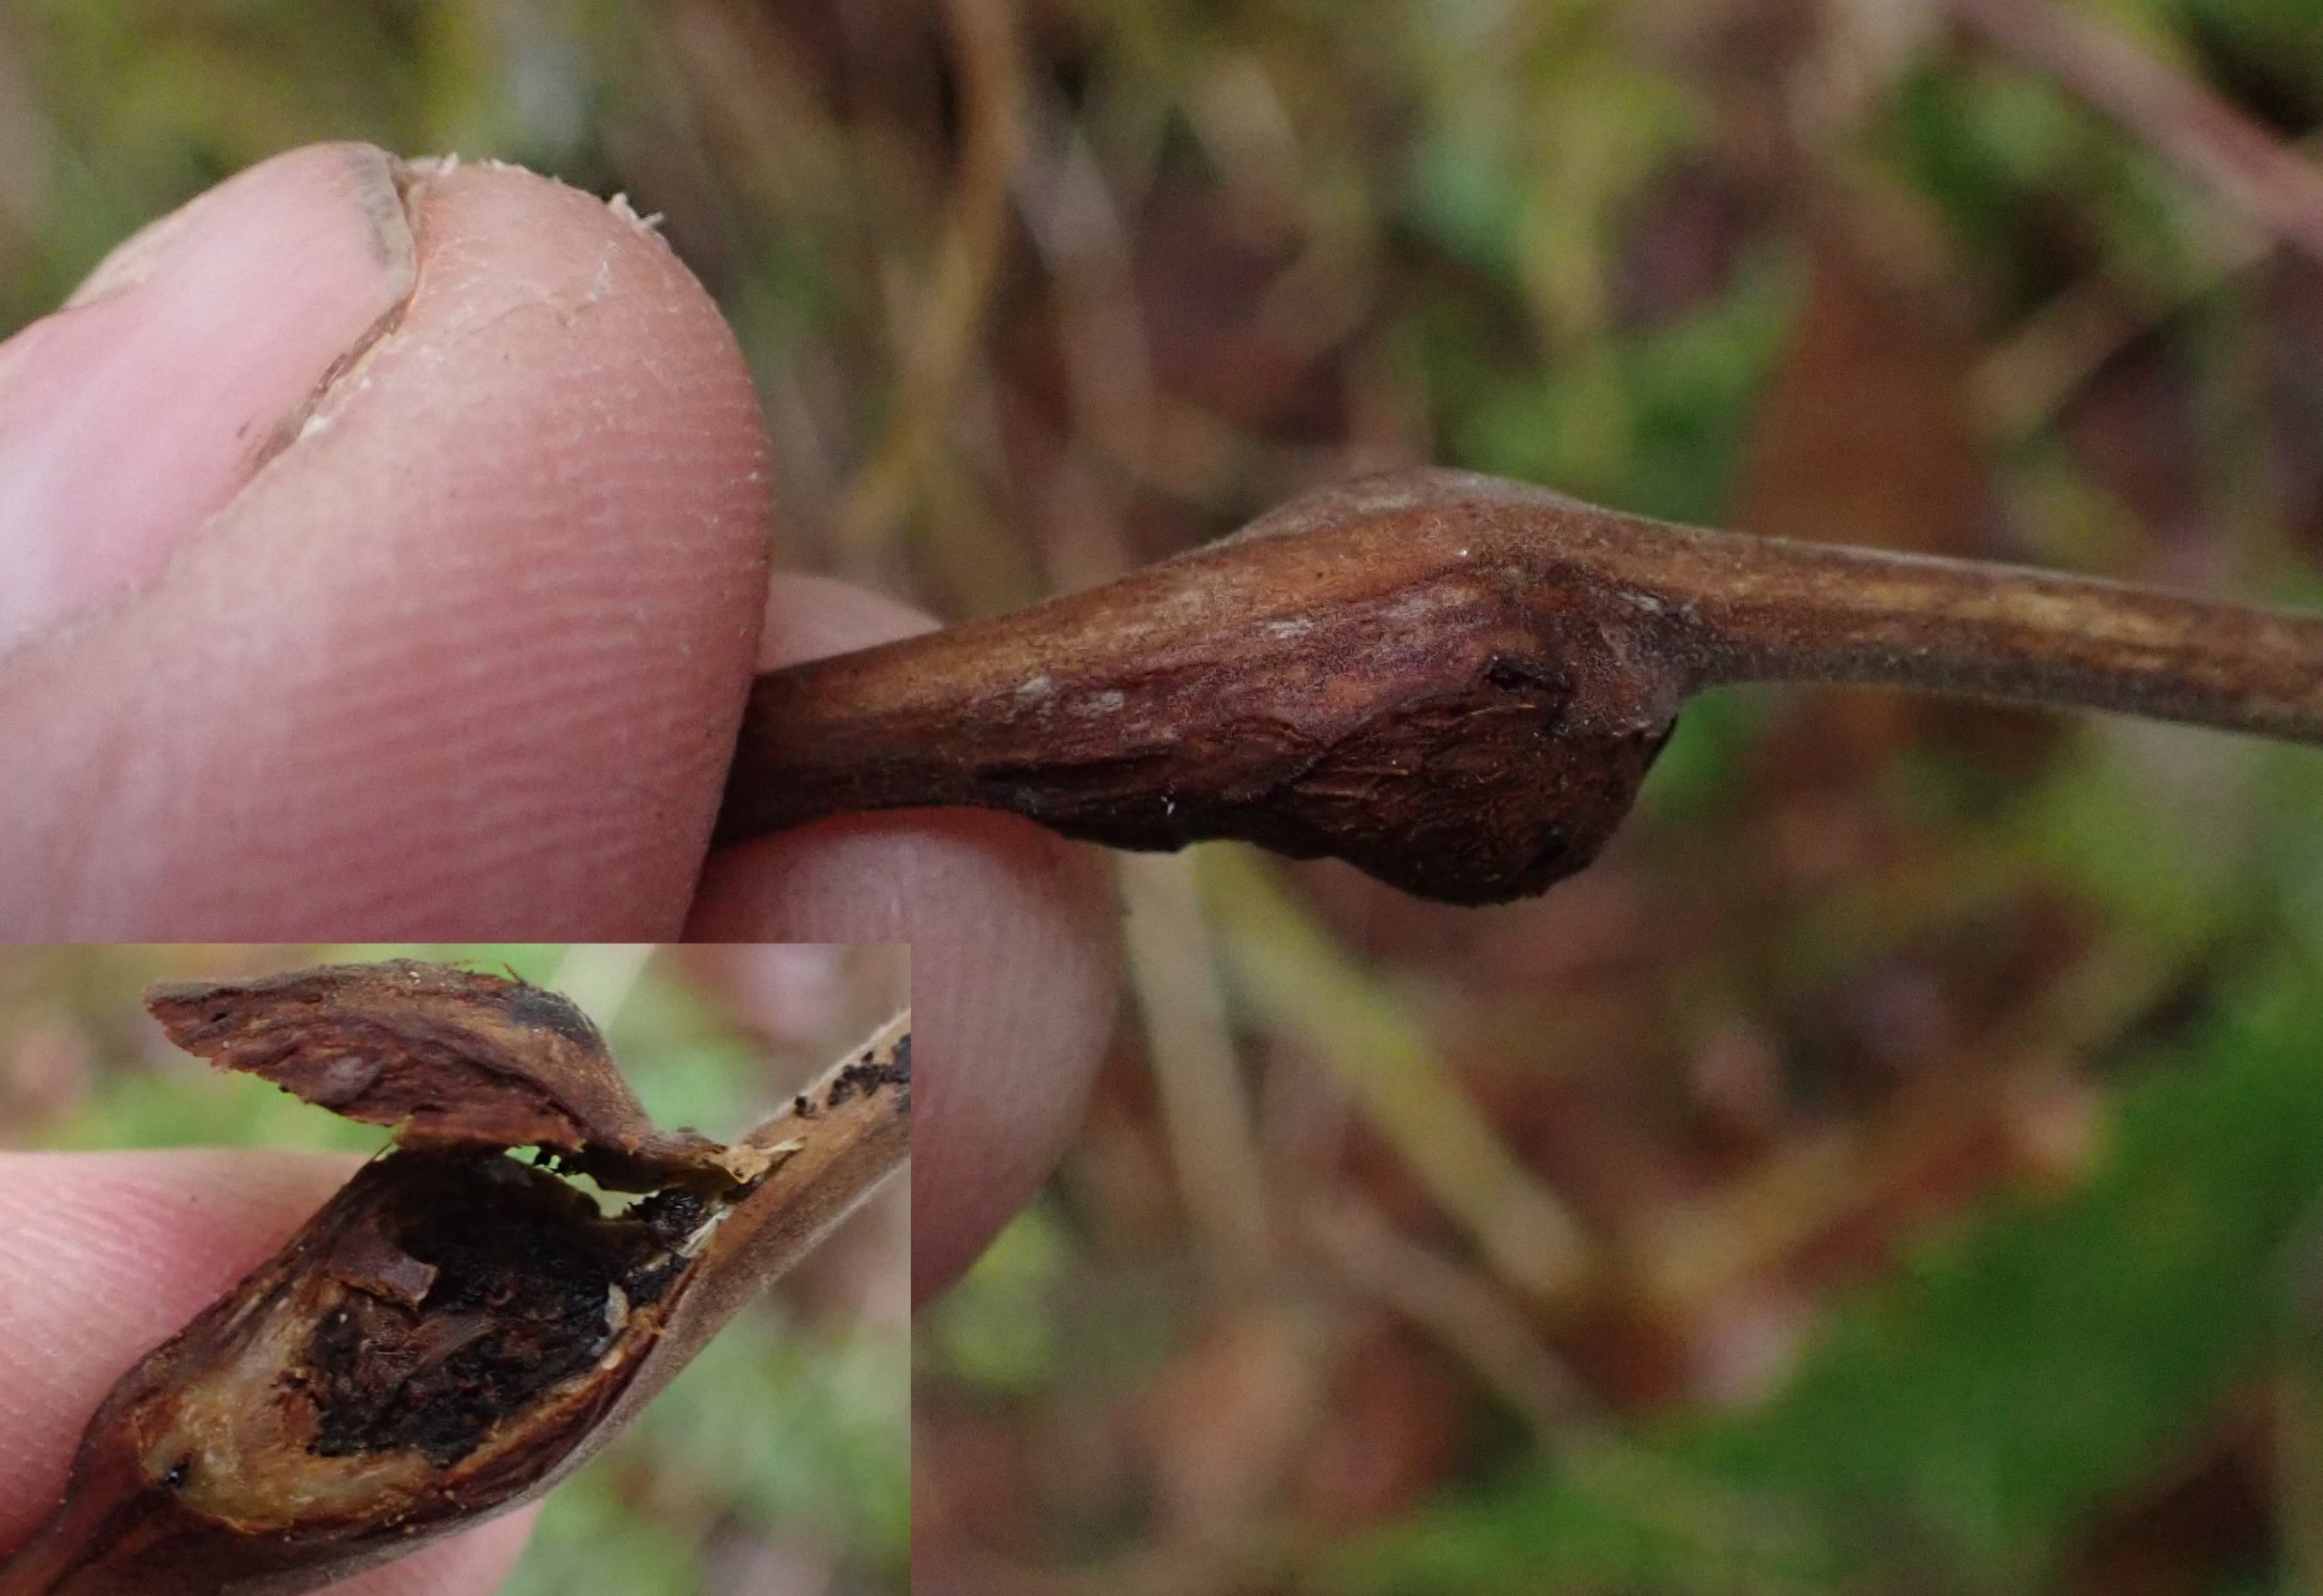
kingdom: Animalia
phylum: Arthropoda
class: Insecta
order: Diptera
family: Cecidomyiidae
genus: Lasioptera
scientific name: Lasioptera rubi
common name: Hindbærstængelgalmyg
